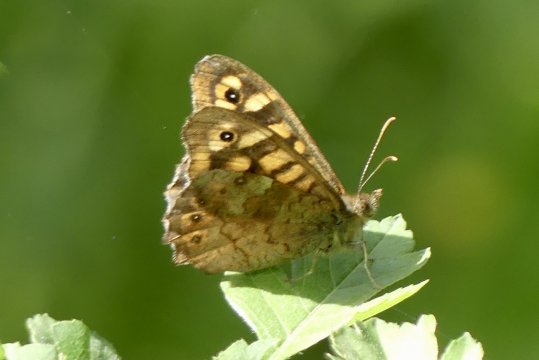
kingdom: Animalia
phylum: Arthropoda
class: Insecta
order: Lepidoptera
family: Nymphalidae
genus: Pararge
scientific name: Pararge aegeria
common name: Speckled Wood Butterfly
